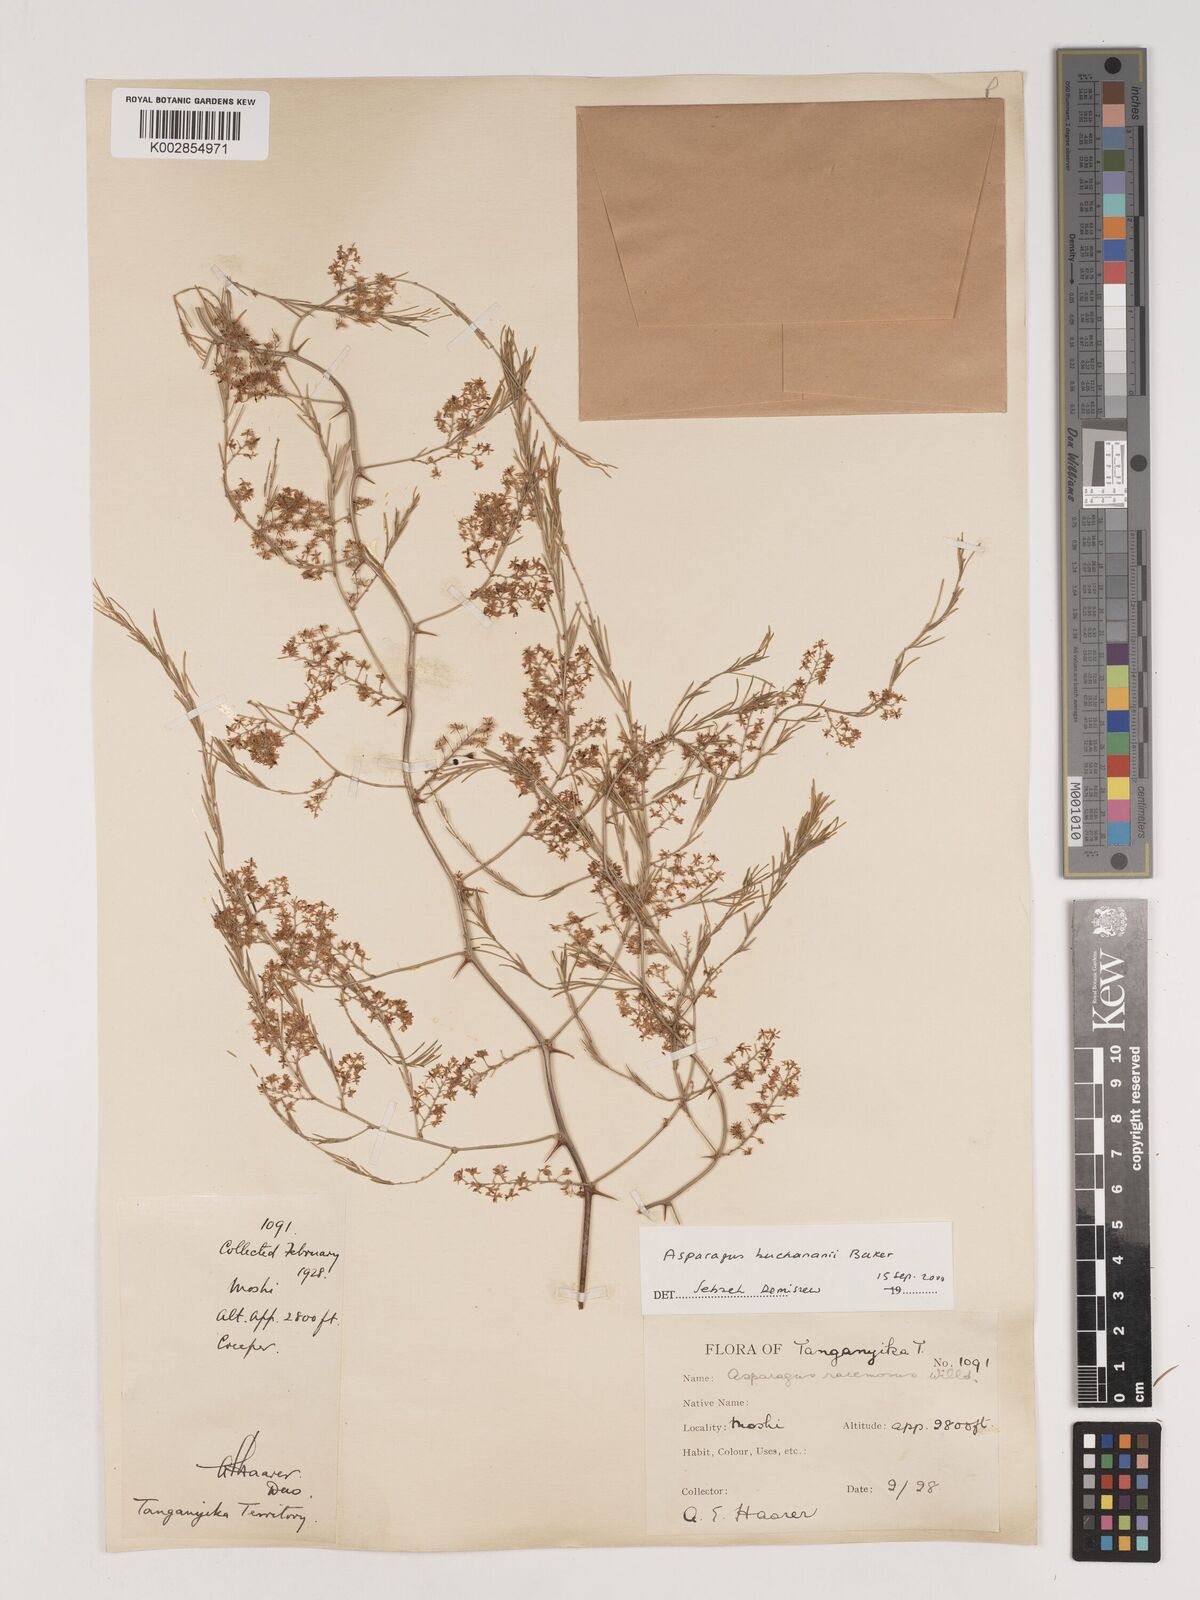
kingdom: Plantae
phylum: Tracheophyta
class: Liliopsida
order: Asparagales
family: Asparagaceae
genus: Asparagus
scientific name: Asparagus buchananii
